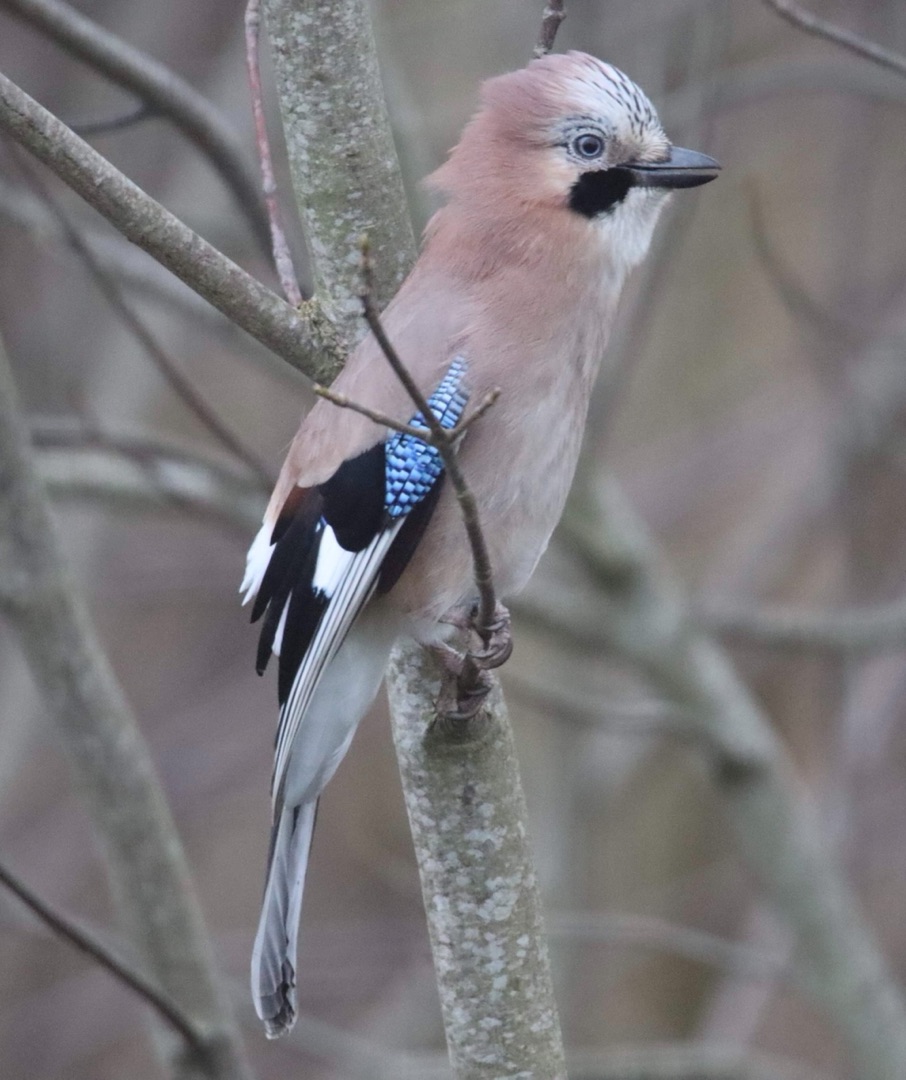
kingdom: Animalia
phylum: Chordata
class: Aves
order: Passeriformes
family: Corvidae
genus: Garrulus
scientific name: Garrulus glandarius
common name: Skovskade
